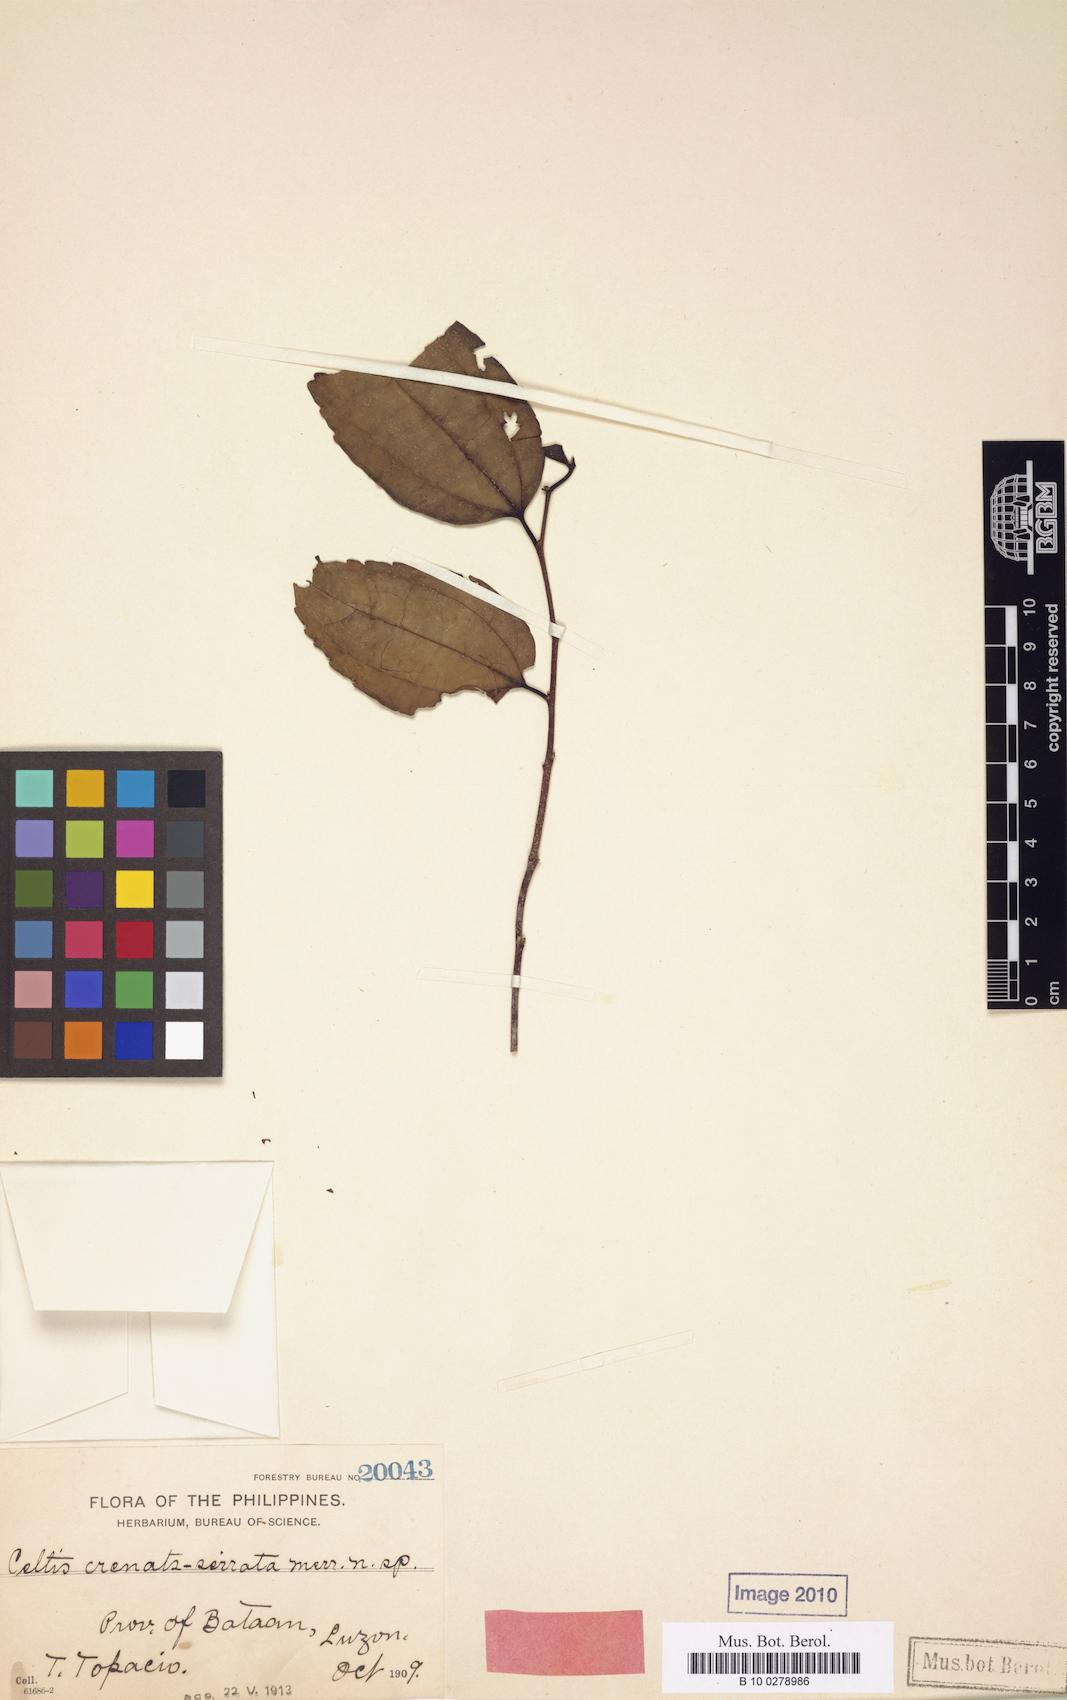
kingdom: Plantae
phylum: Tracheophyta
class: Magnoliopsida
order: Rosales
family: Cannabaceae
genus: Celtis
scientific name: Celtis timorensis
